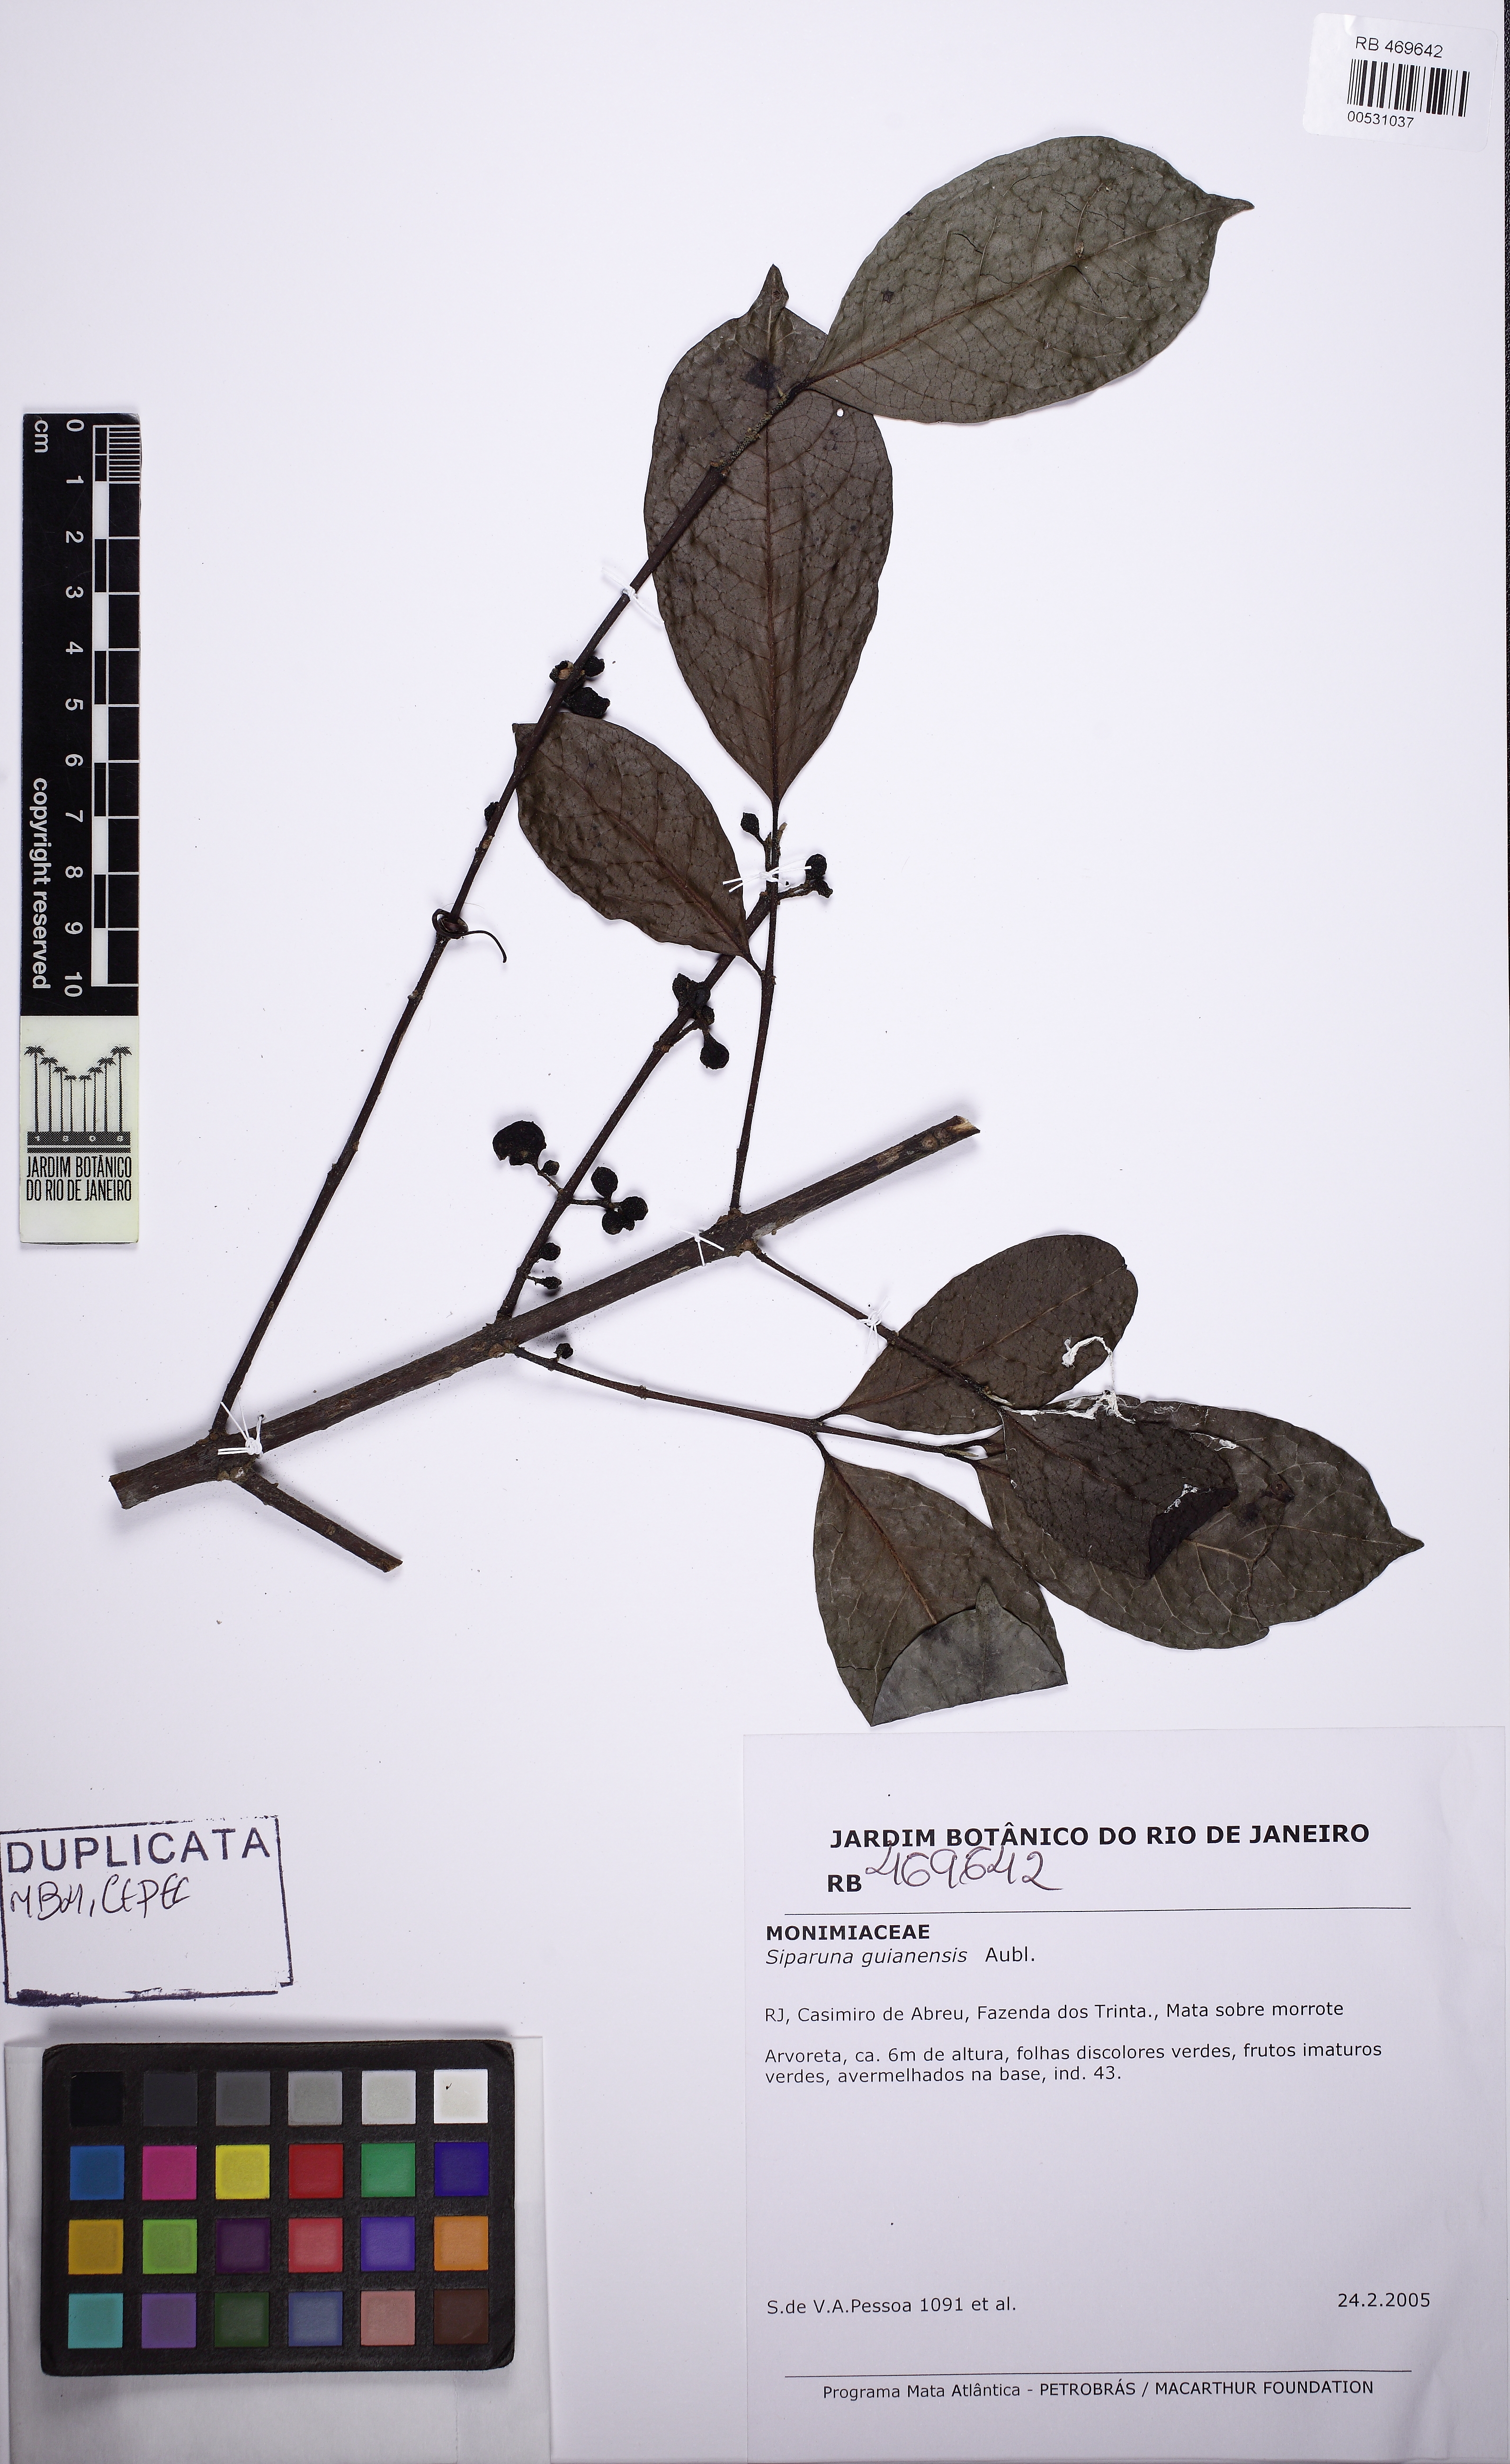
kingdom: Plantae
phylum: Tracheophyta
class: Magnoliopsida
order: Laurales
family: Siparunaceae
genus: Siparuna
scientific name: Siparuna guianensis
